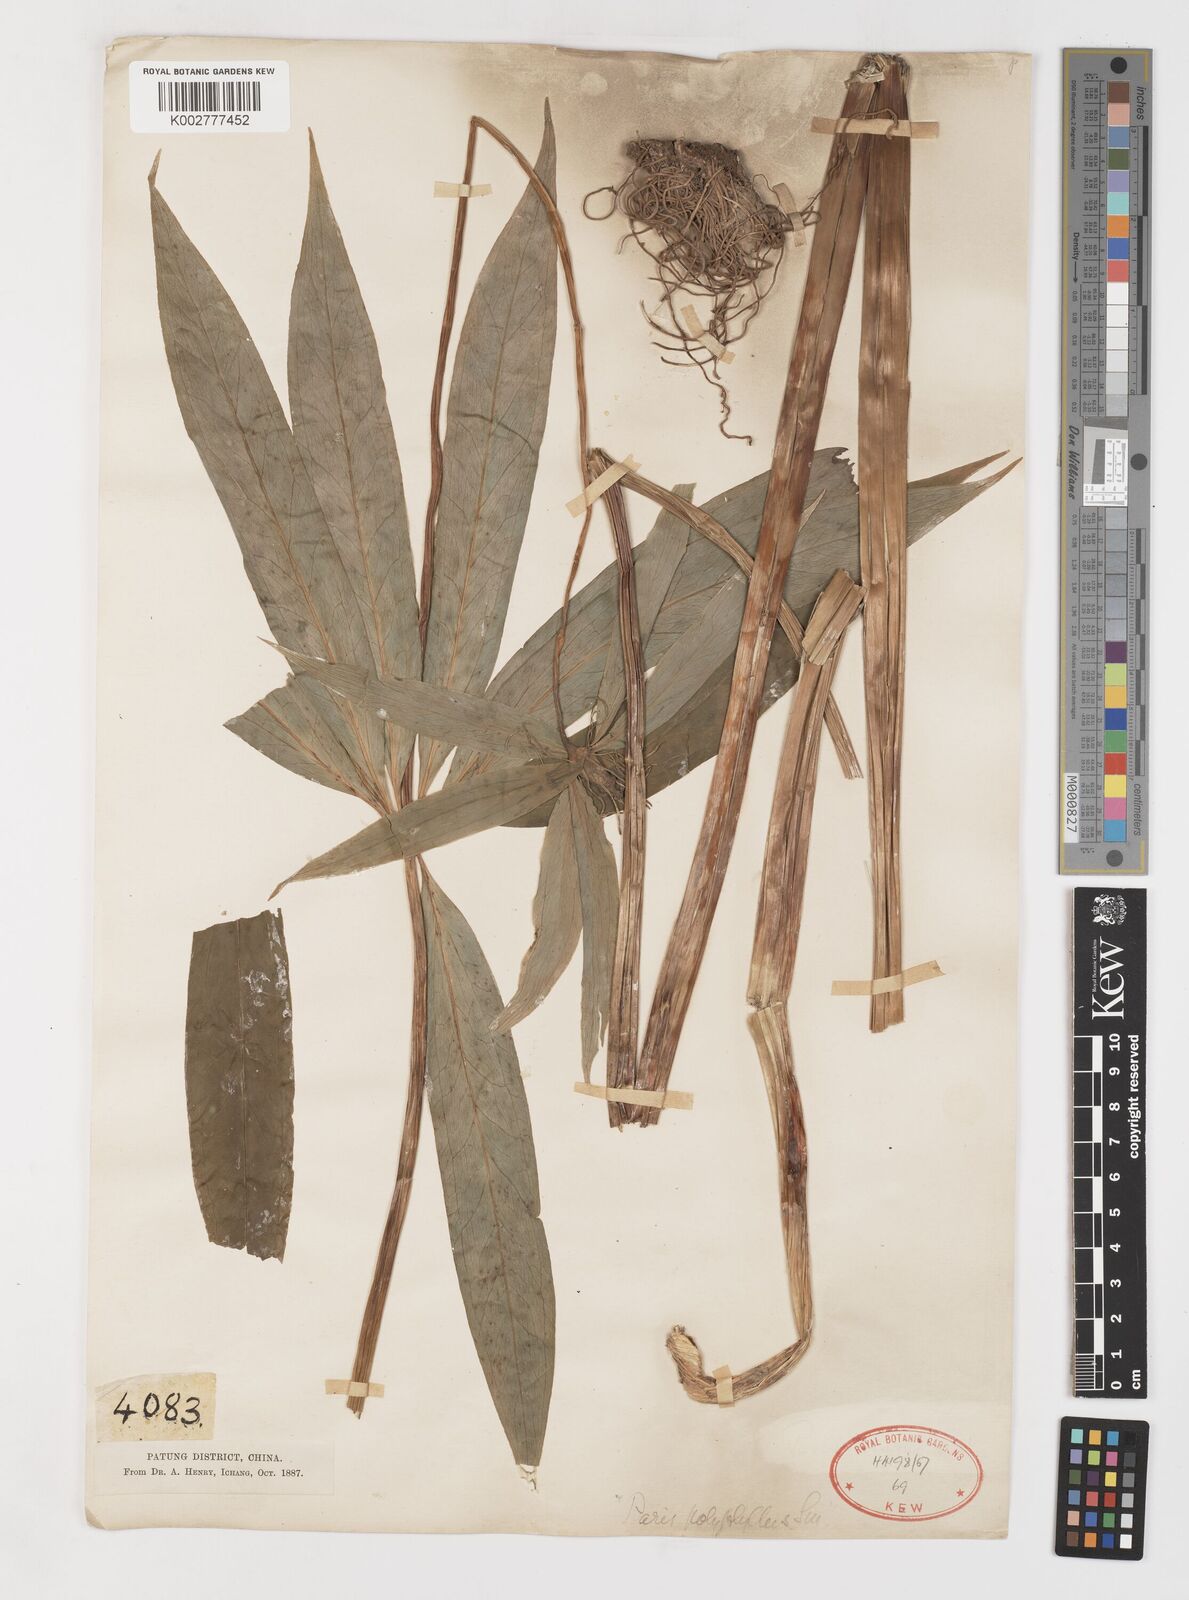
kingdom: Plantae
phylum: Tracheophyta
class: Liliopsida
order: Liliales
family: Melanthiaceae
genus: Paris
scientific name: Paris polyphylla
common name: Love apple
